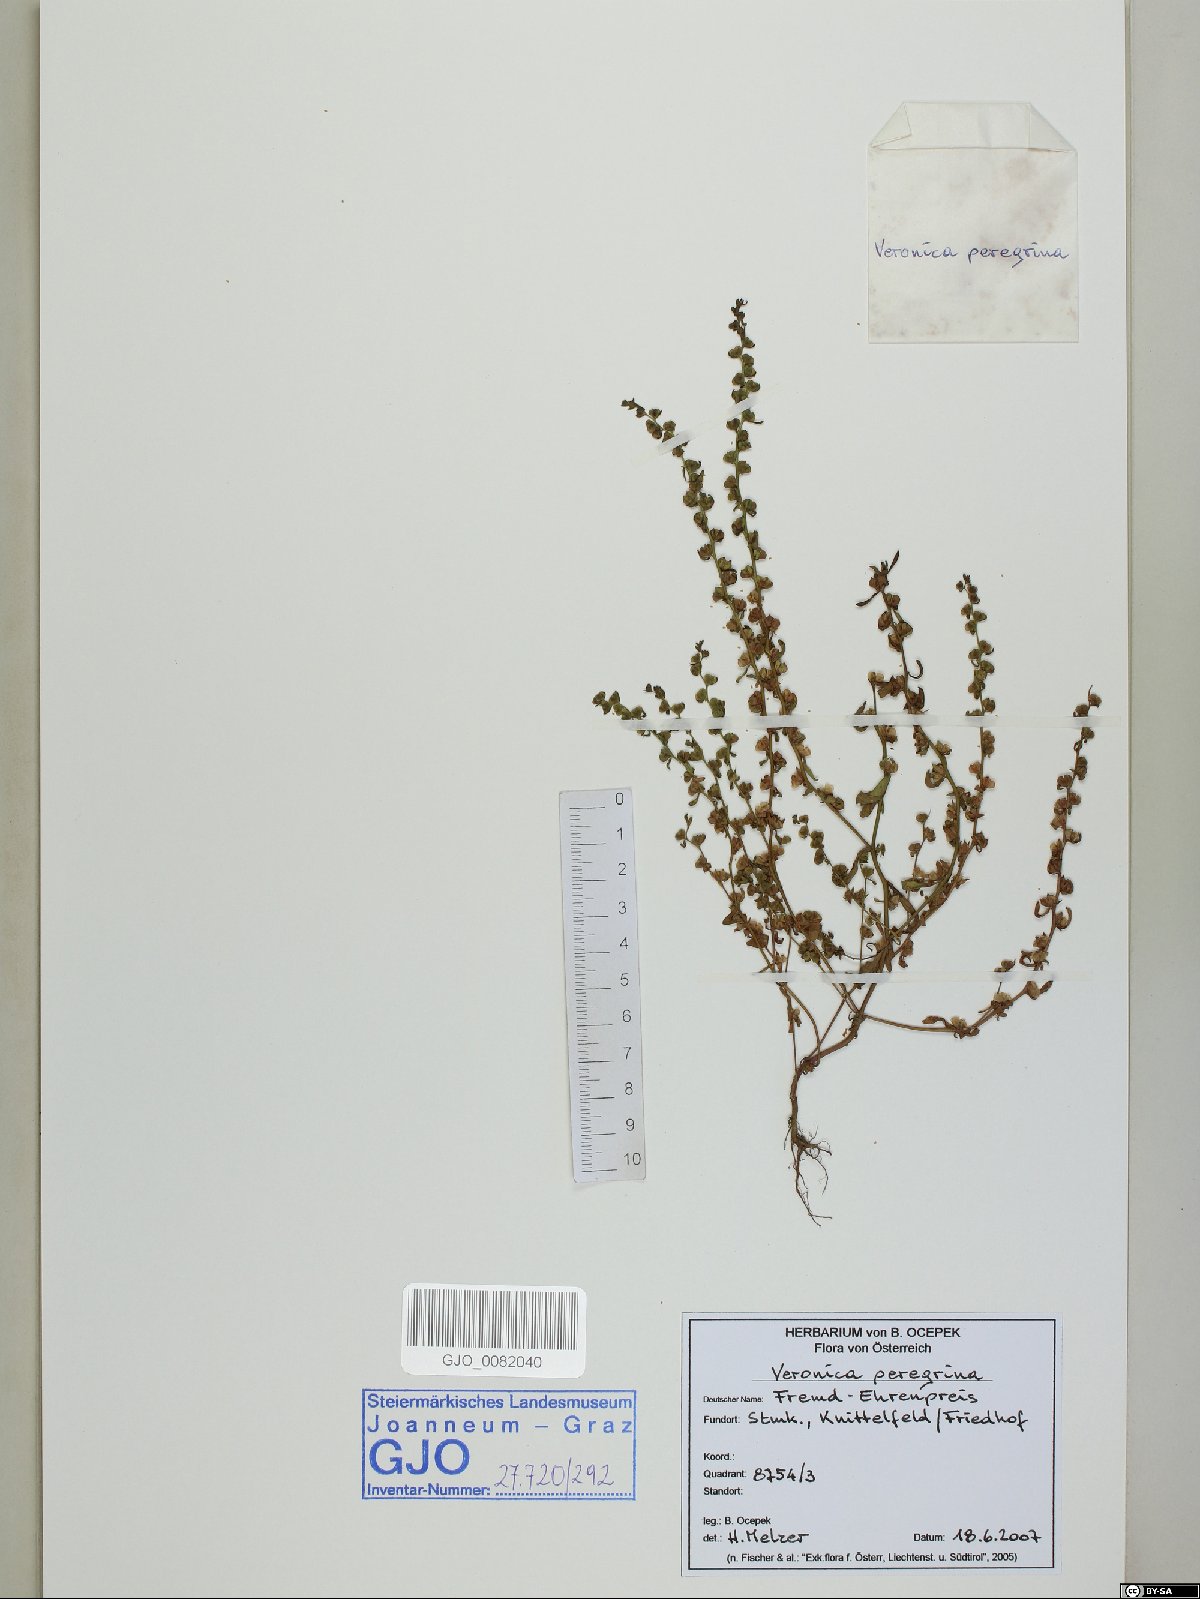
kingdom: Plantae
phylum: Tracheophyta
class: Magnoliopsida
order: Lamiales
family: Plantaginaceae
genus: Veronica
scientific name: Veronica peregrina
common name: Neckweed
